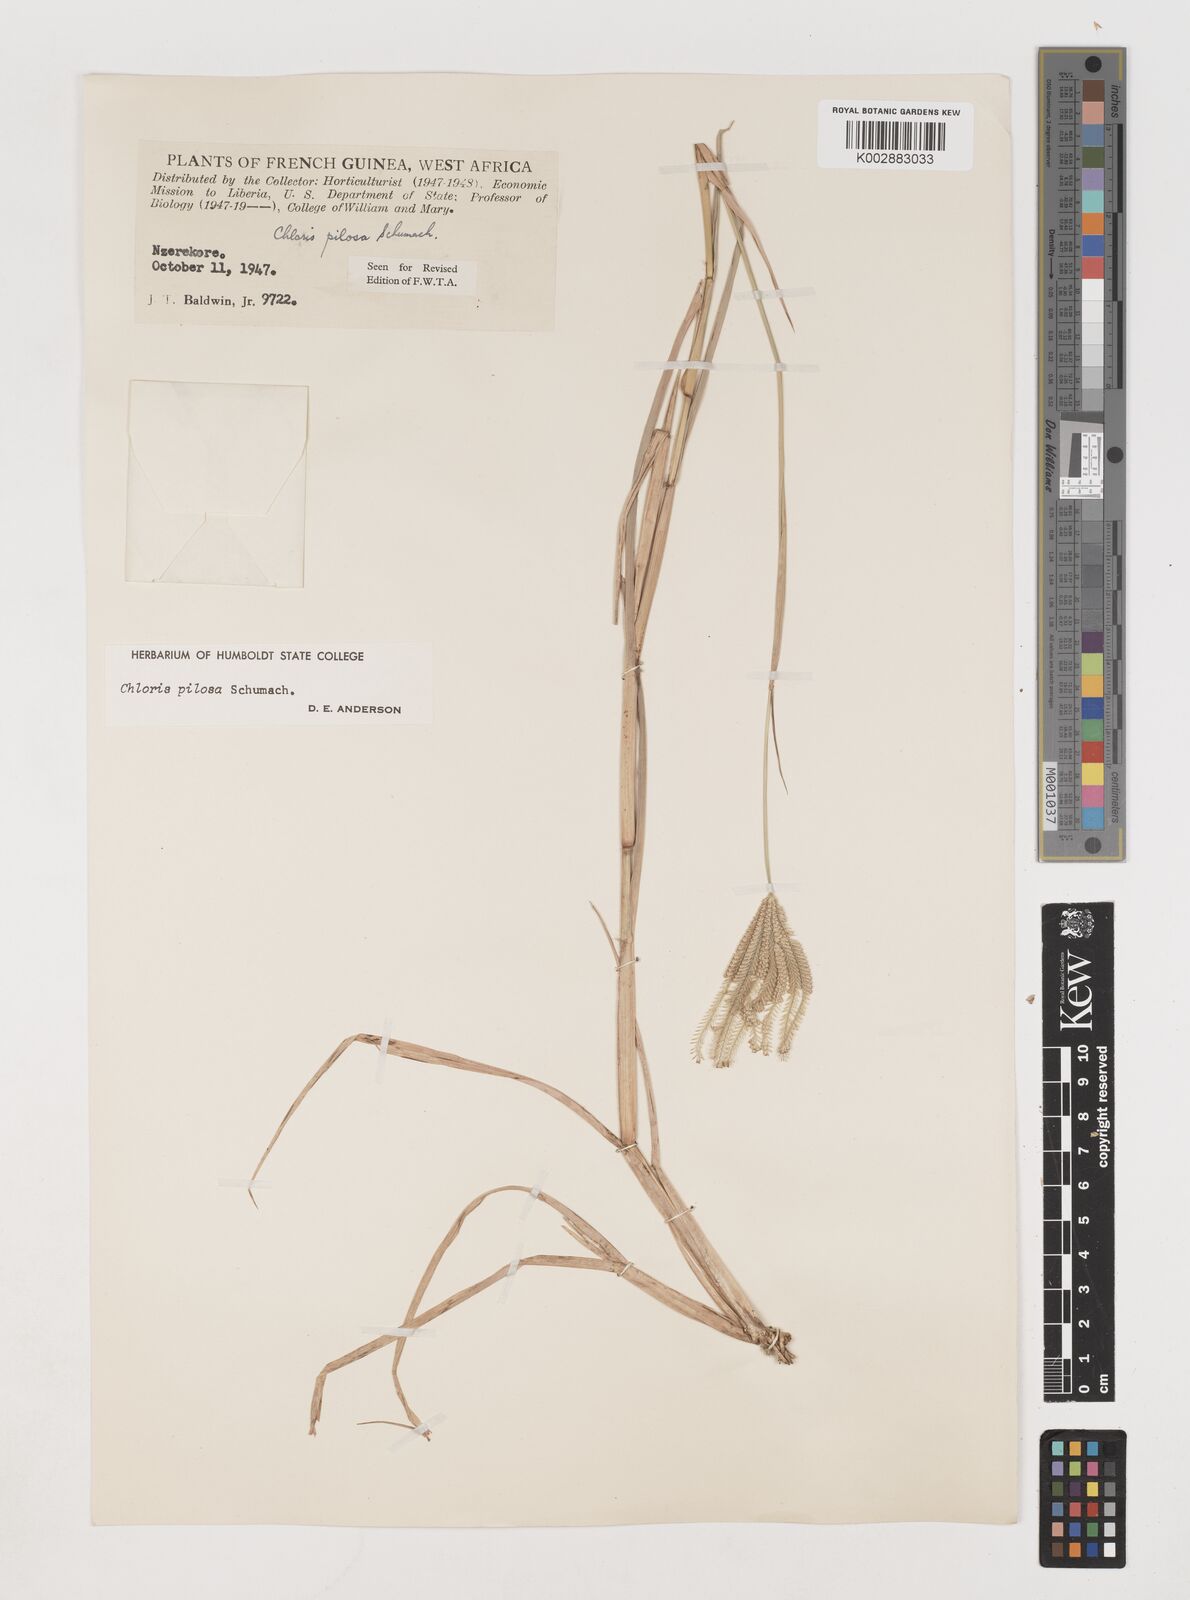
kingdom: Plantae
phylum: Tracheophyta
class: Liliopsida
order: Poales
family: Poaceae
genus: Chloris
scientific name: Chloris pilosa
